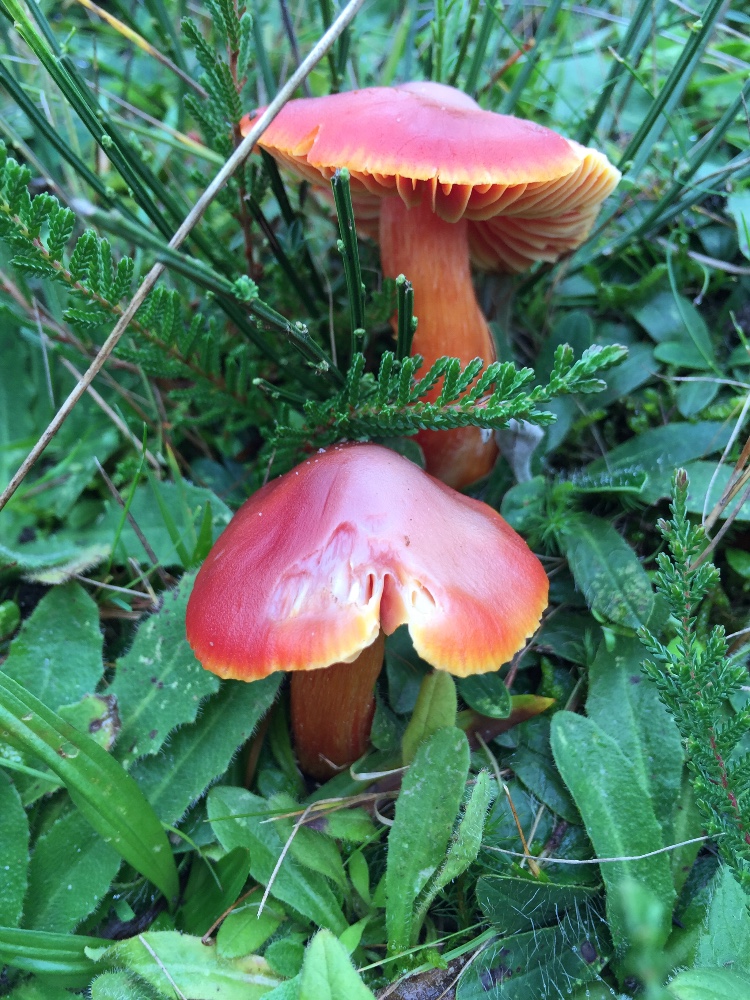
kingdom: Fungi
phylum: Basidiomycota
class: Agaricomycetes
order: Agaricales
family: Hygrophoraceae
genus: Hygrocybe
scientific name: Hygrocybe punicea
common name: skarlagen-vokshat
